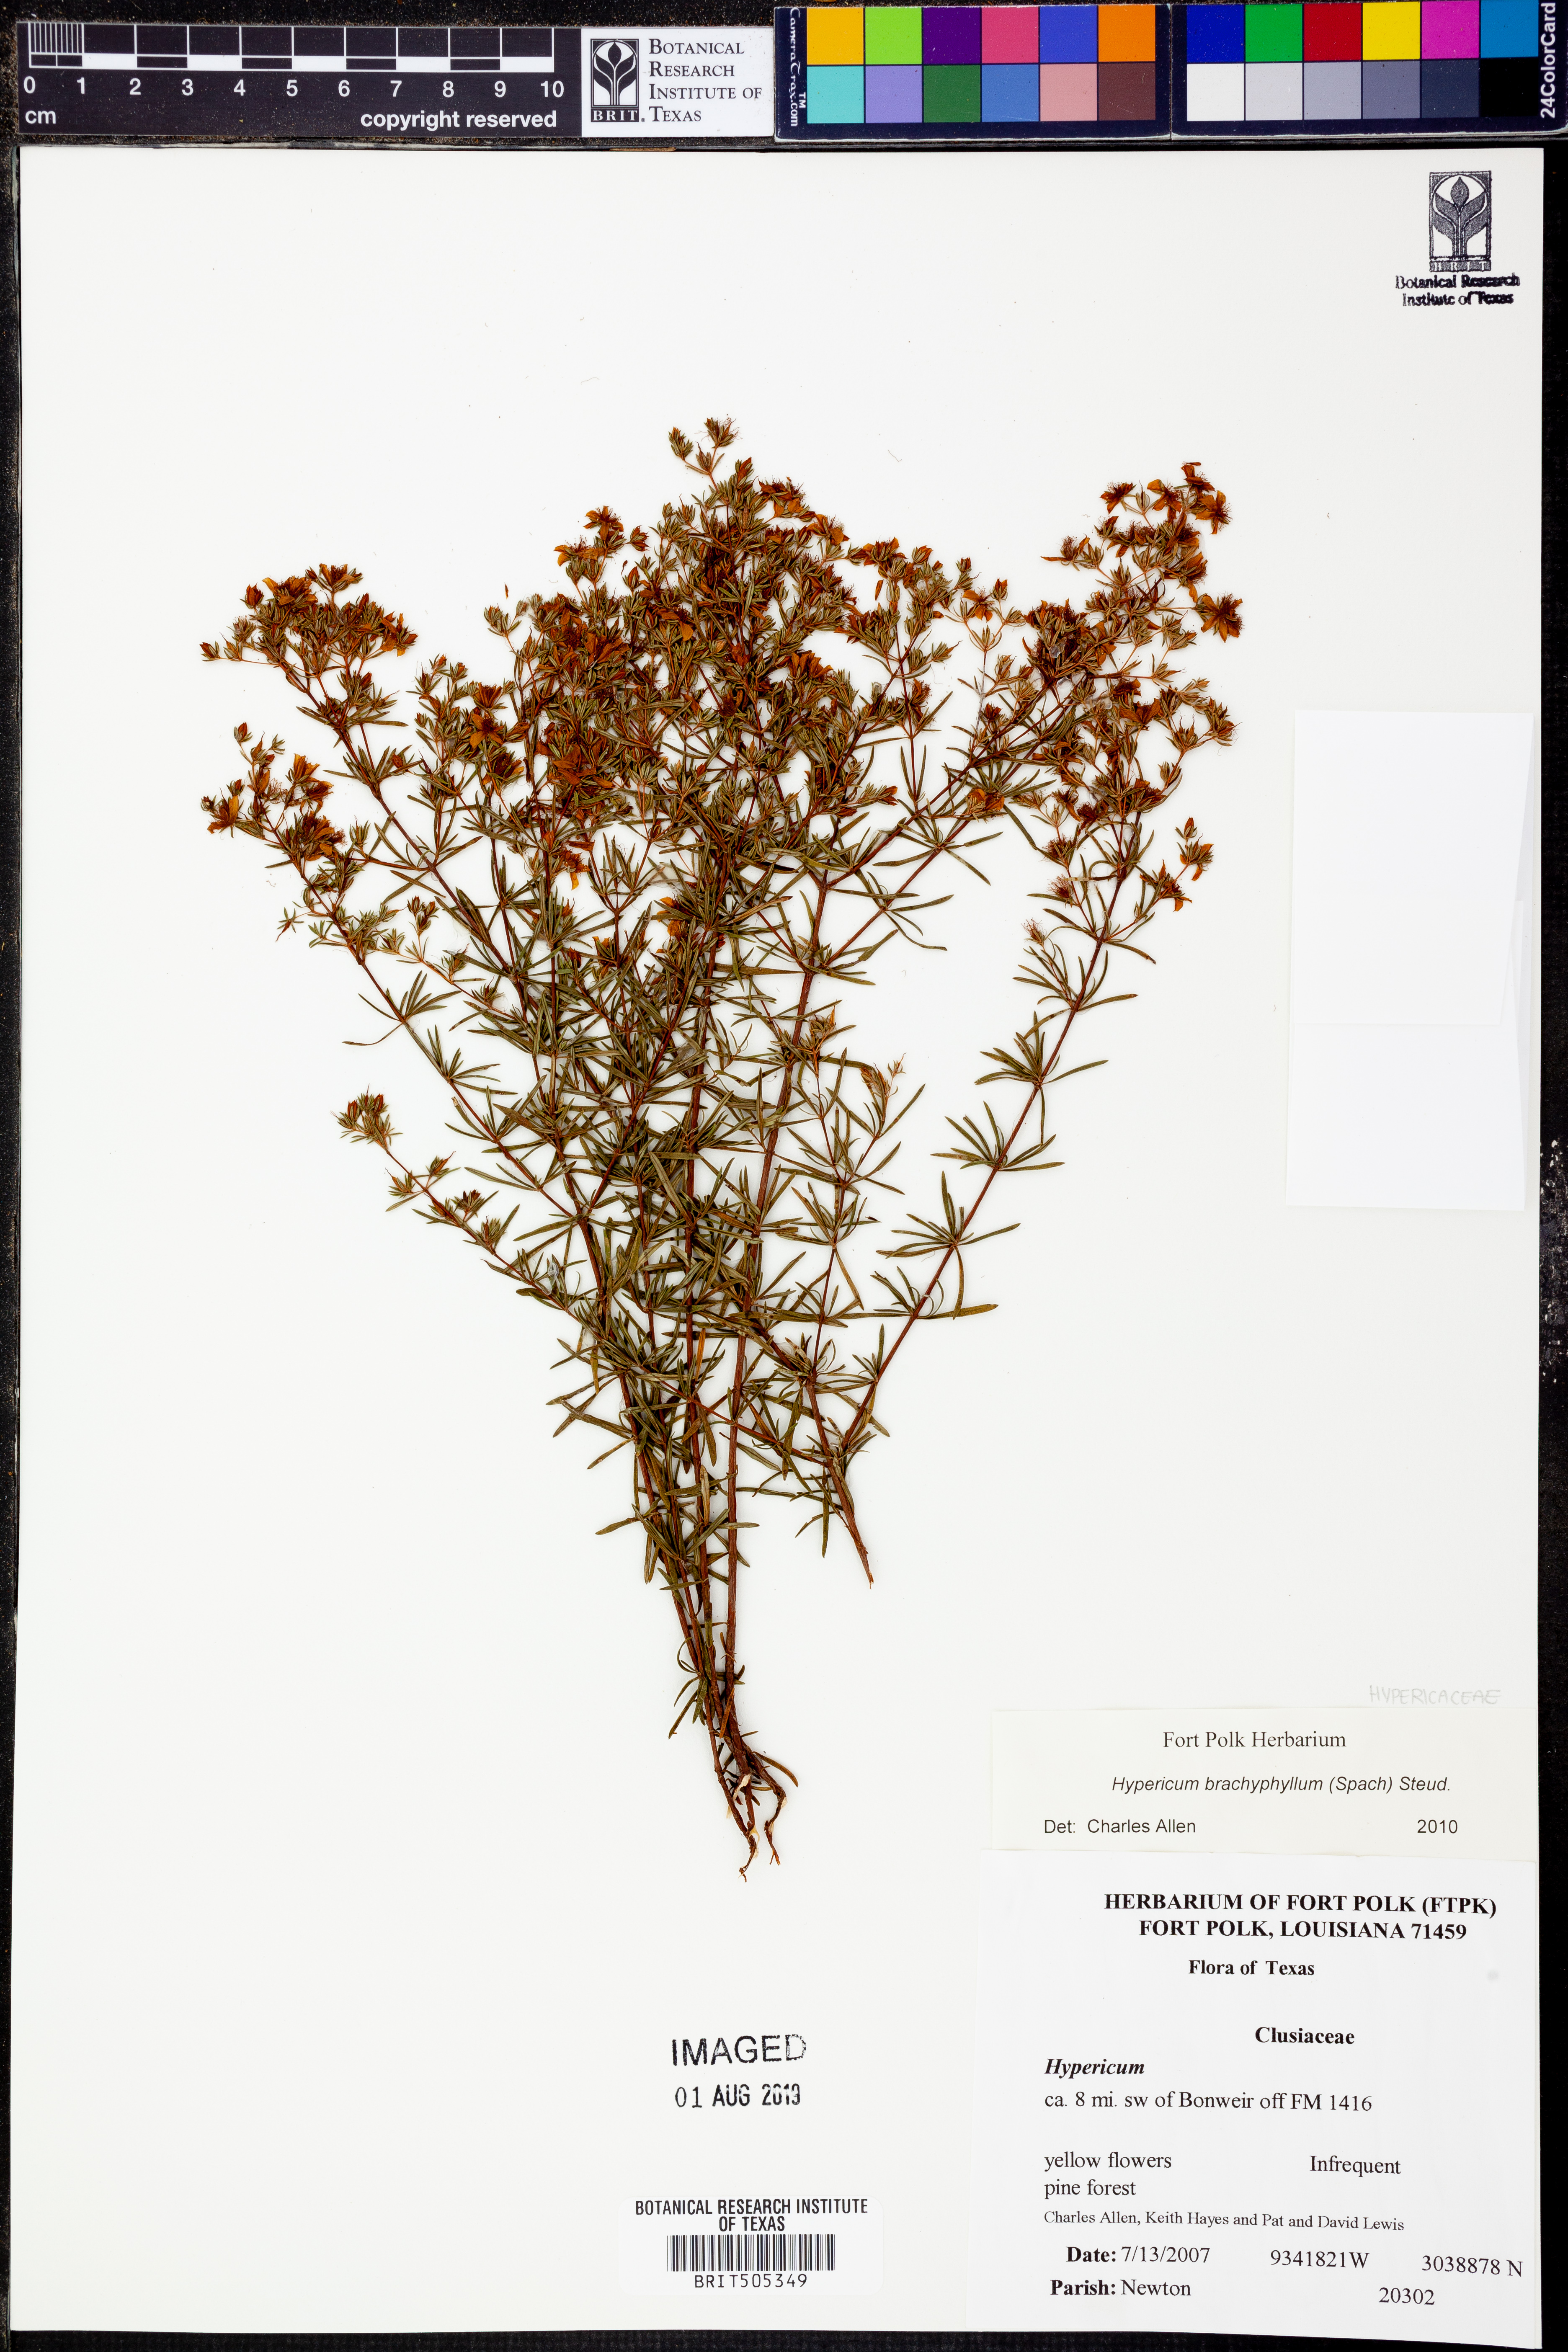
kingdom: Plantae
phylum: Tracheophyta
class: Magnoliopsida
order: Malpighiales
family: Hypericaceae
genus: Hypericum
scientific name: Hypericum brachyphyllum
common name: Coastal plain st. john's-wort
